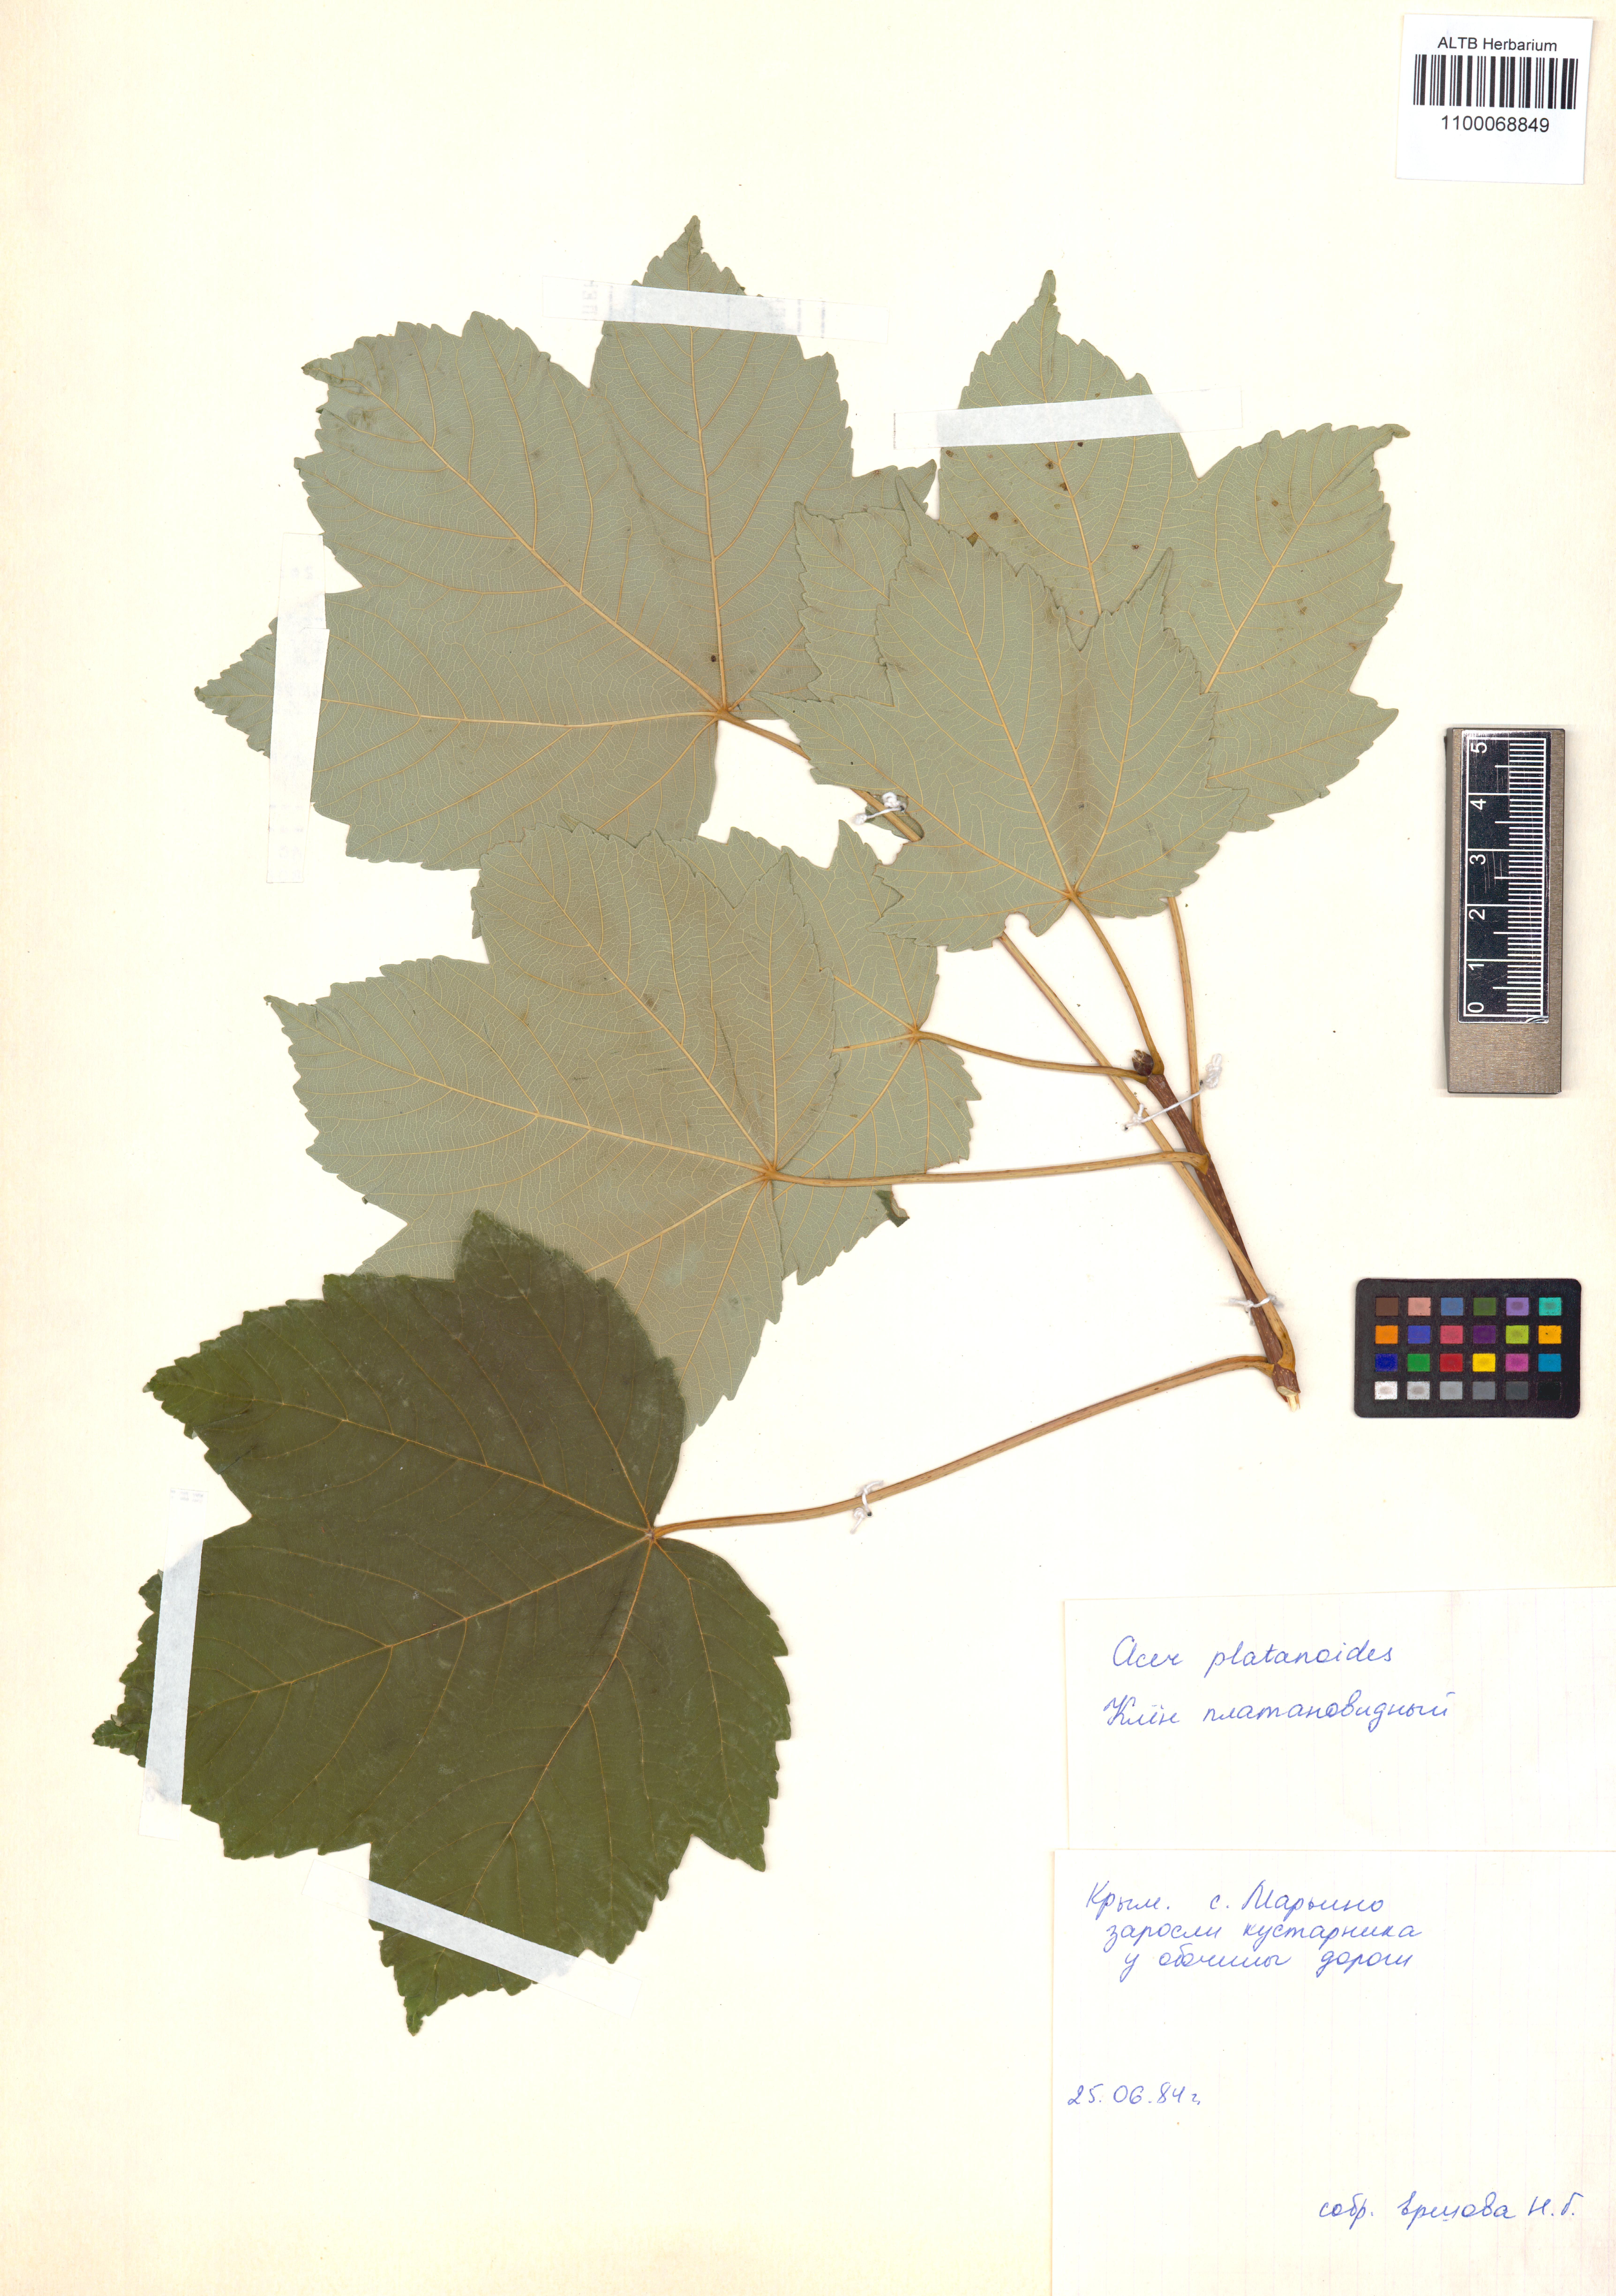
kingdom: Plantae
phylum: Tracheophyta
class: Magnoliopsida
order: Sapindales
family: Sapindaceae
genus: Acer
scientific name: Acer platanoides
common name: Norway maple
